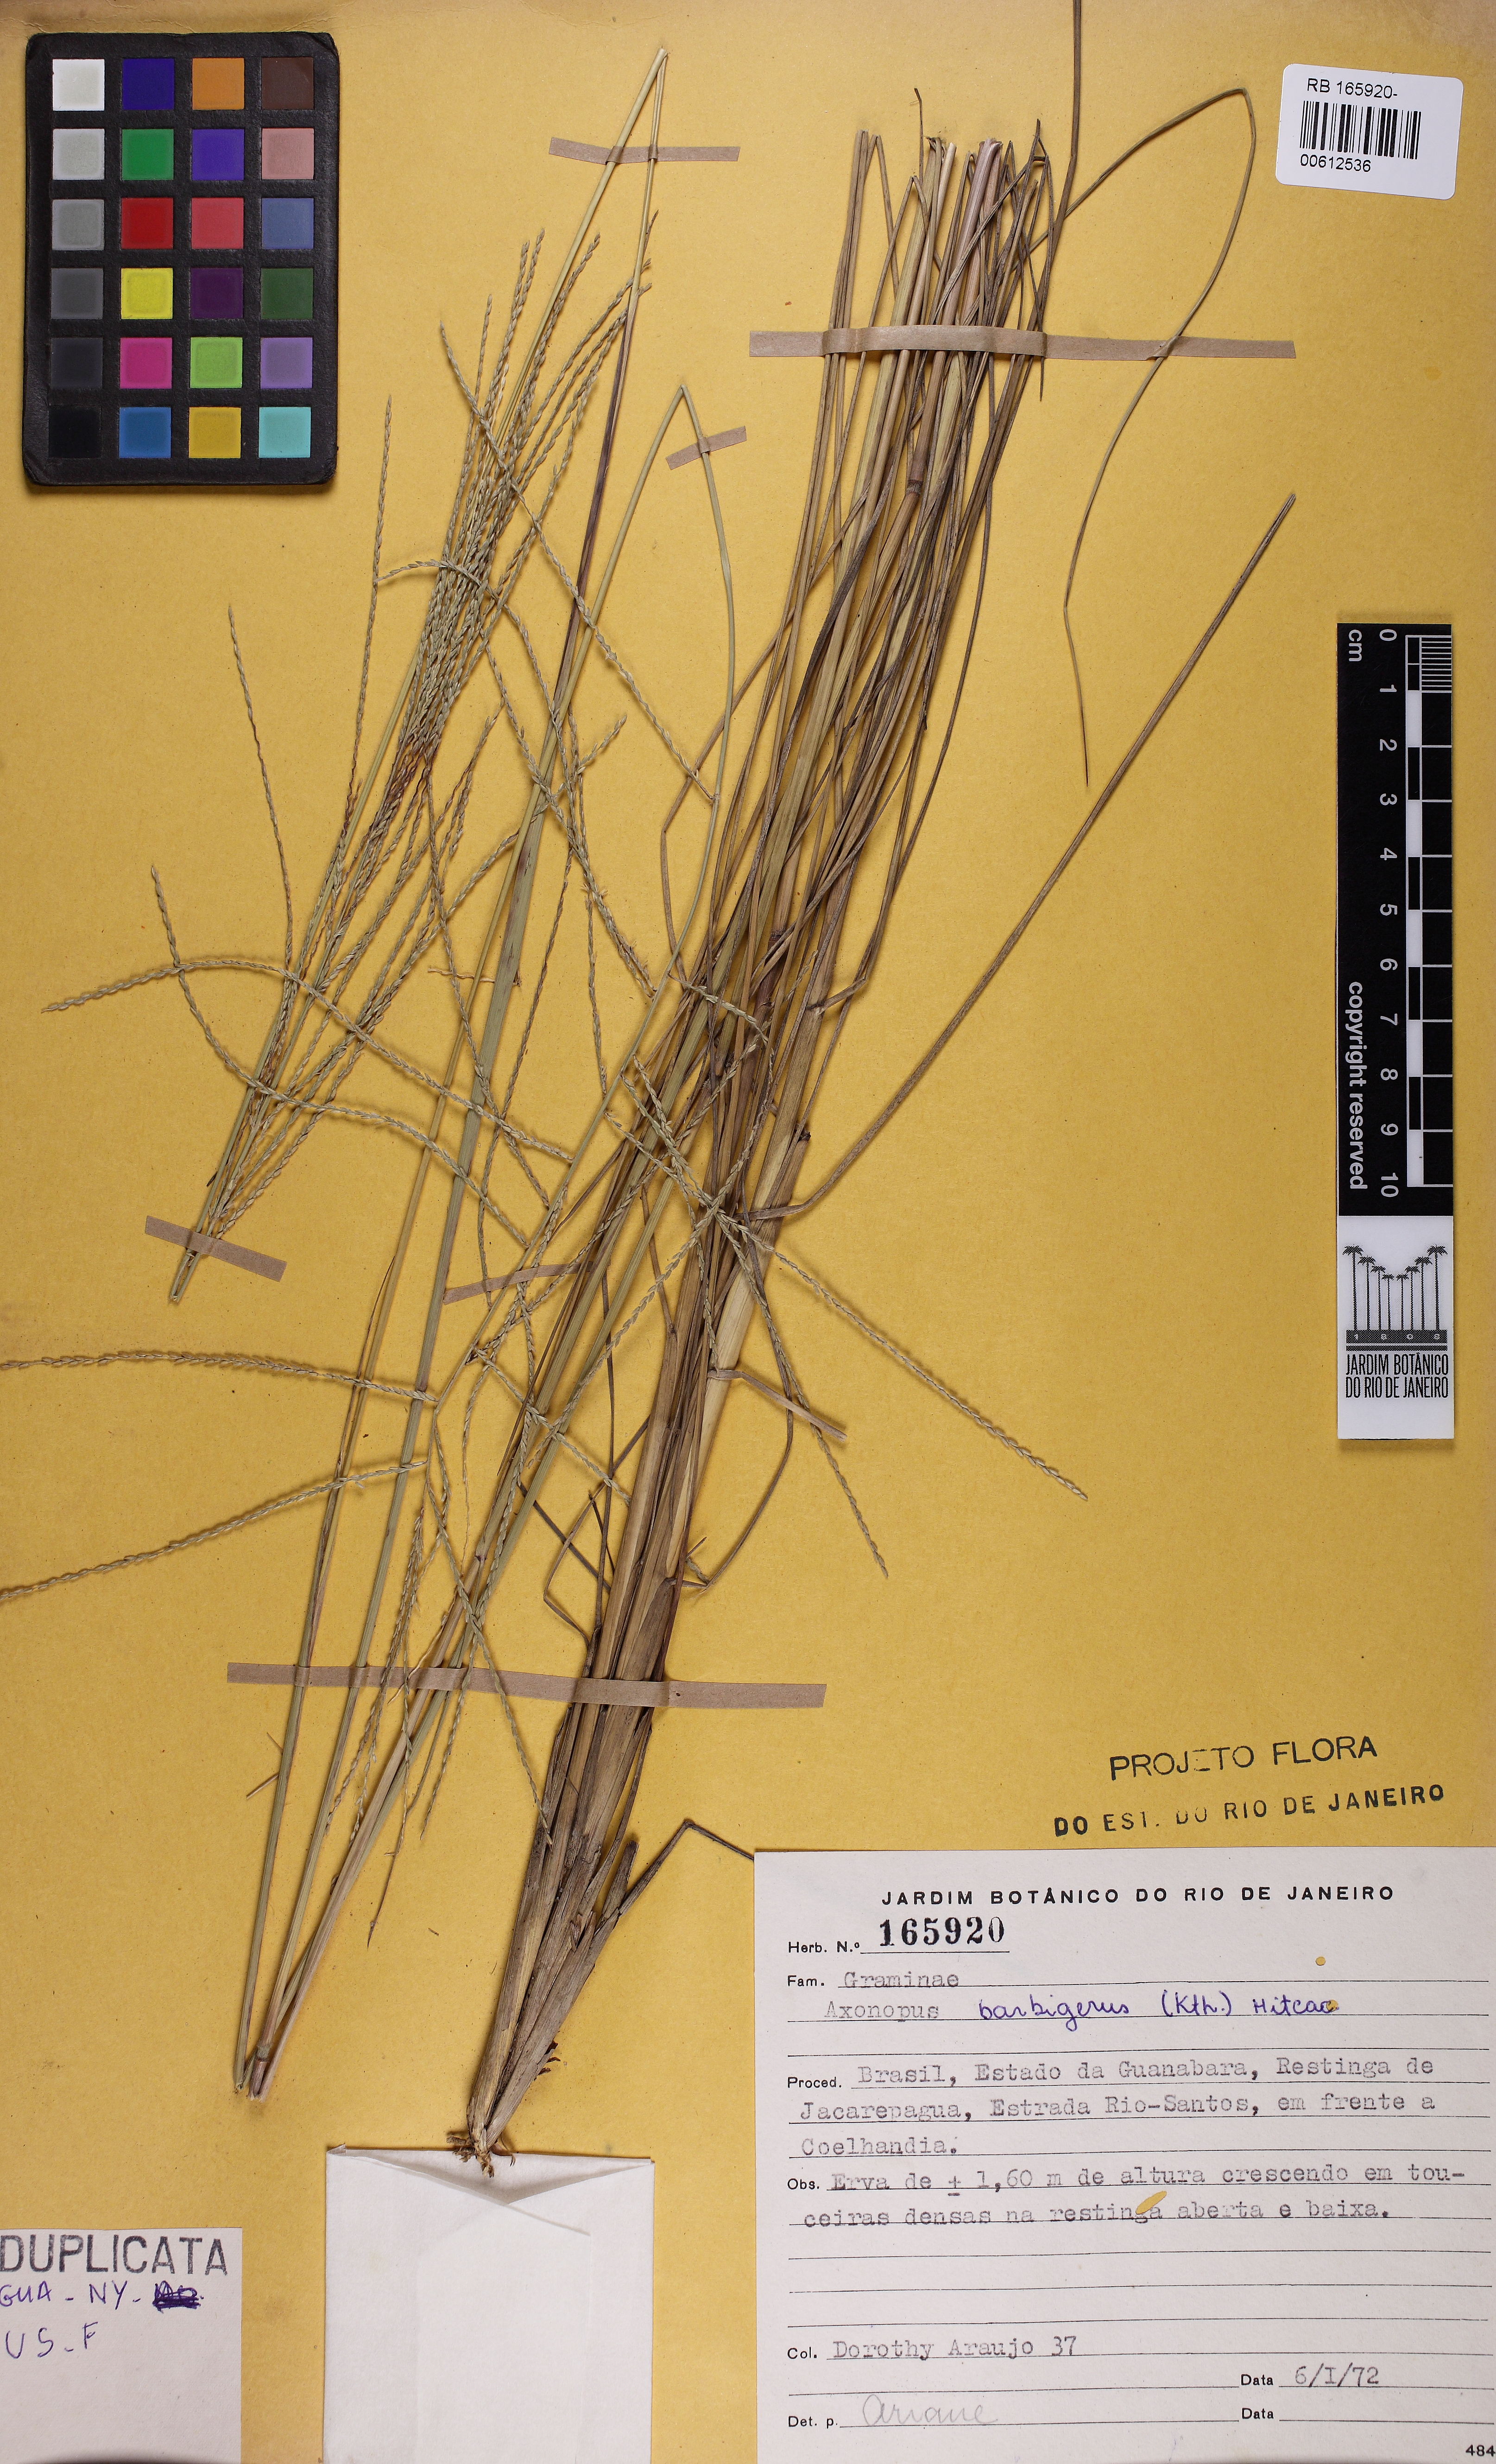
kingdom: Plantae
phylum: Tracheophyta
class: Liliopsida
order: Poales
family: Poaceae
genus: Axonopus
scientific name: Axonopus siccus
